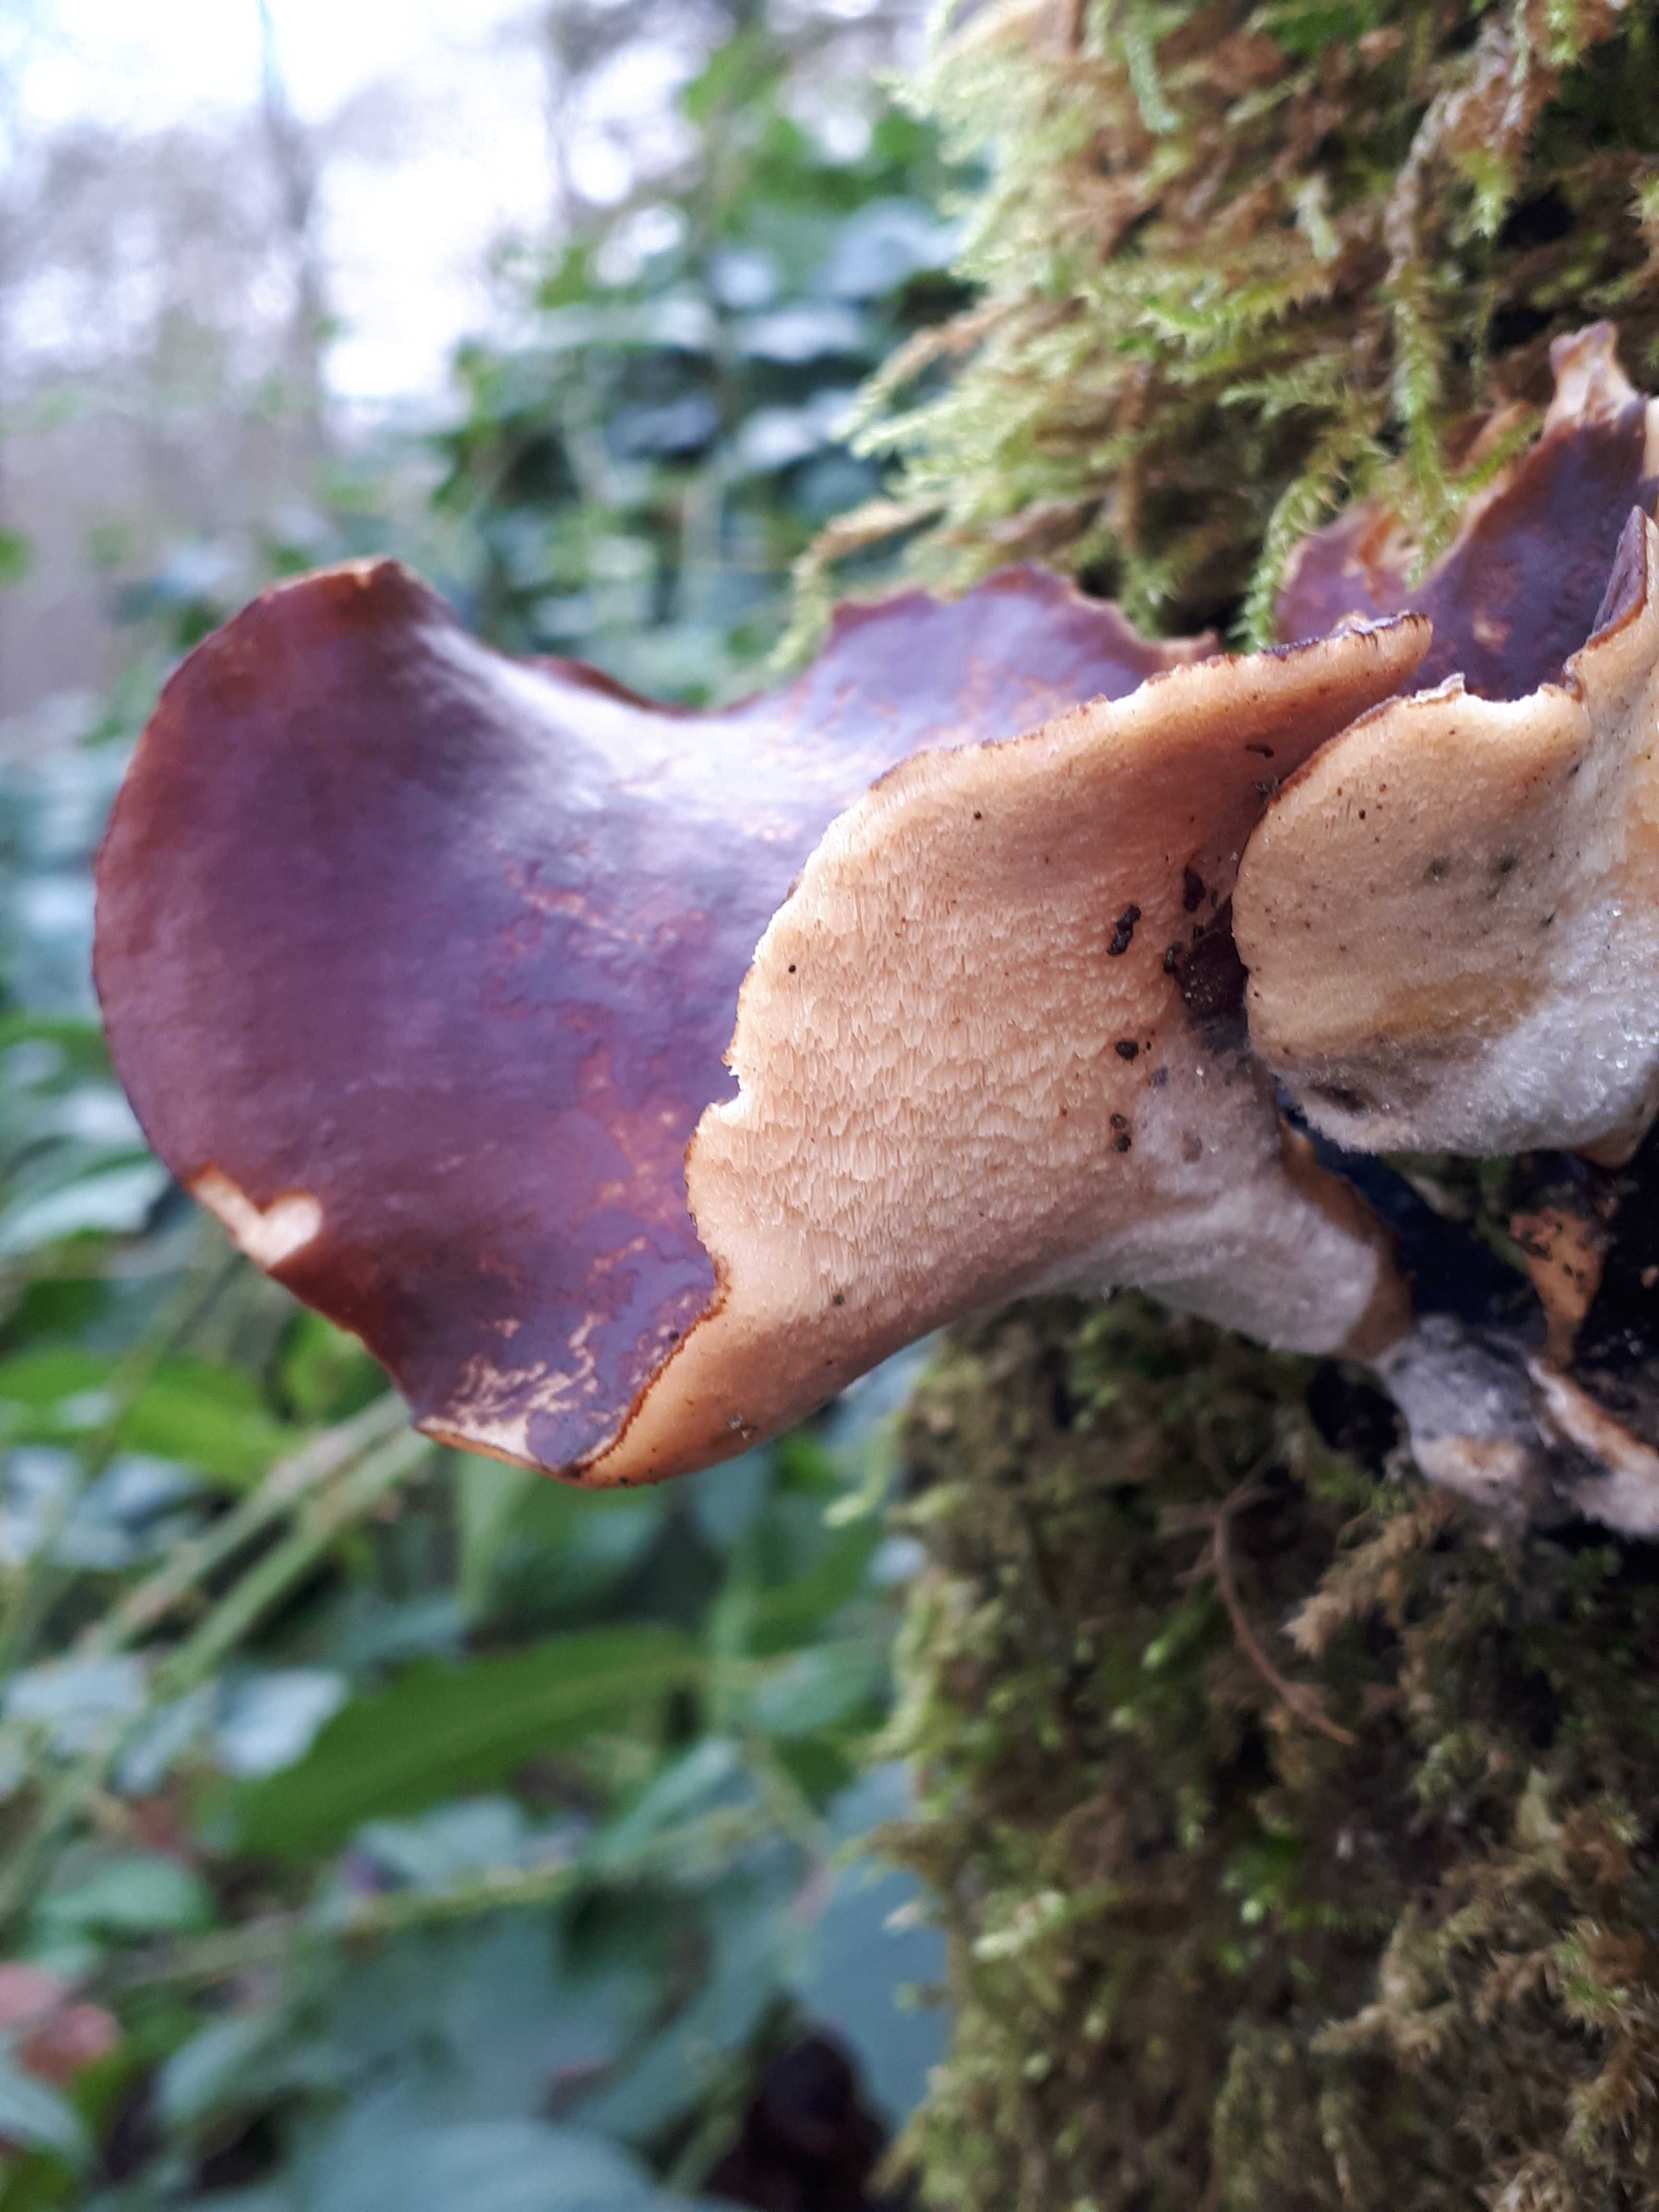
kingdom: Fungi
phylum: Basidiomycota
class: Agaricomycetes
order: Polyporales
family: Polyporaceae
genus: Picipes
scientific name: Picipes badius
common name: kastaniebrun stilkporesvamp
